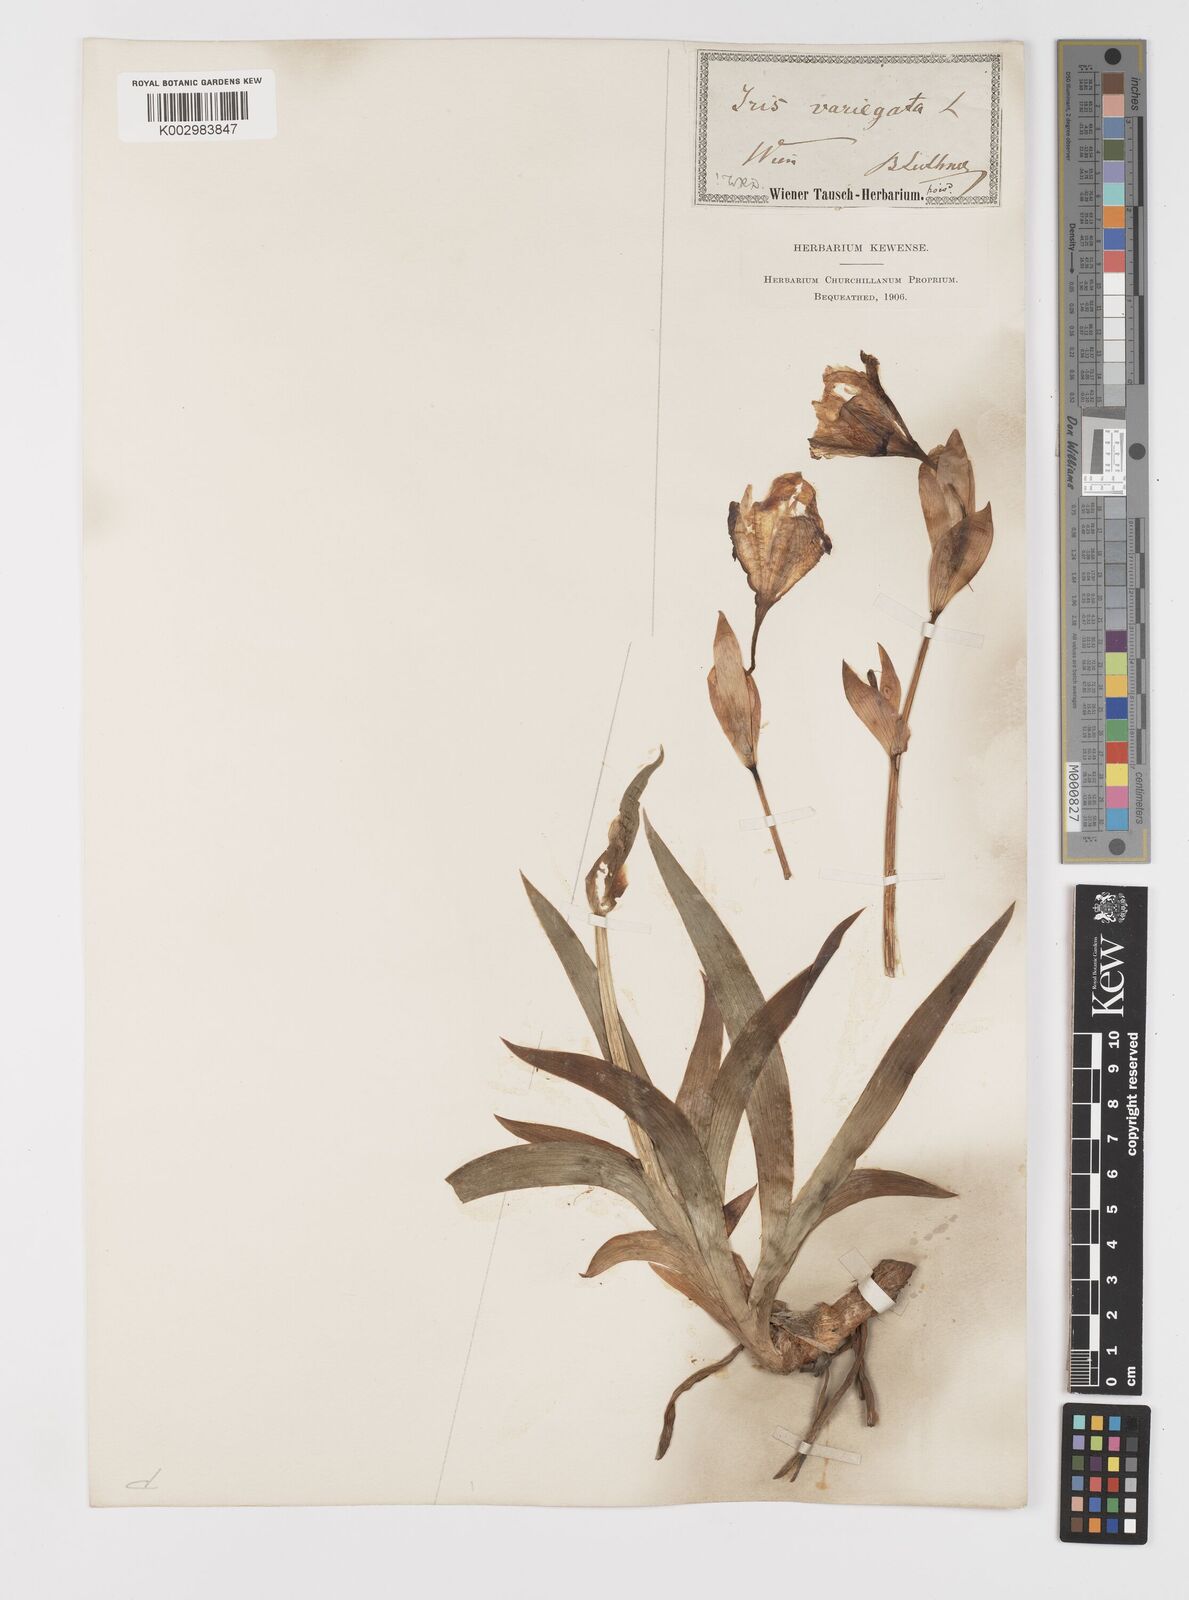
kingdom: Plantae
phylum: Tracheophyta
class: Liliopsida
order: Asparagales
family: Iridaceae
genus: Iris
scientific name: Iris variegata
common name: Hungarian iris
